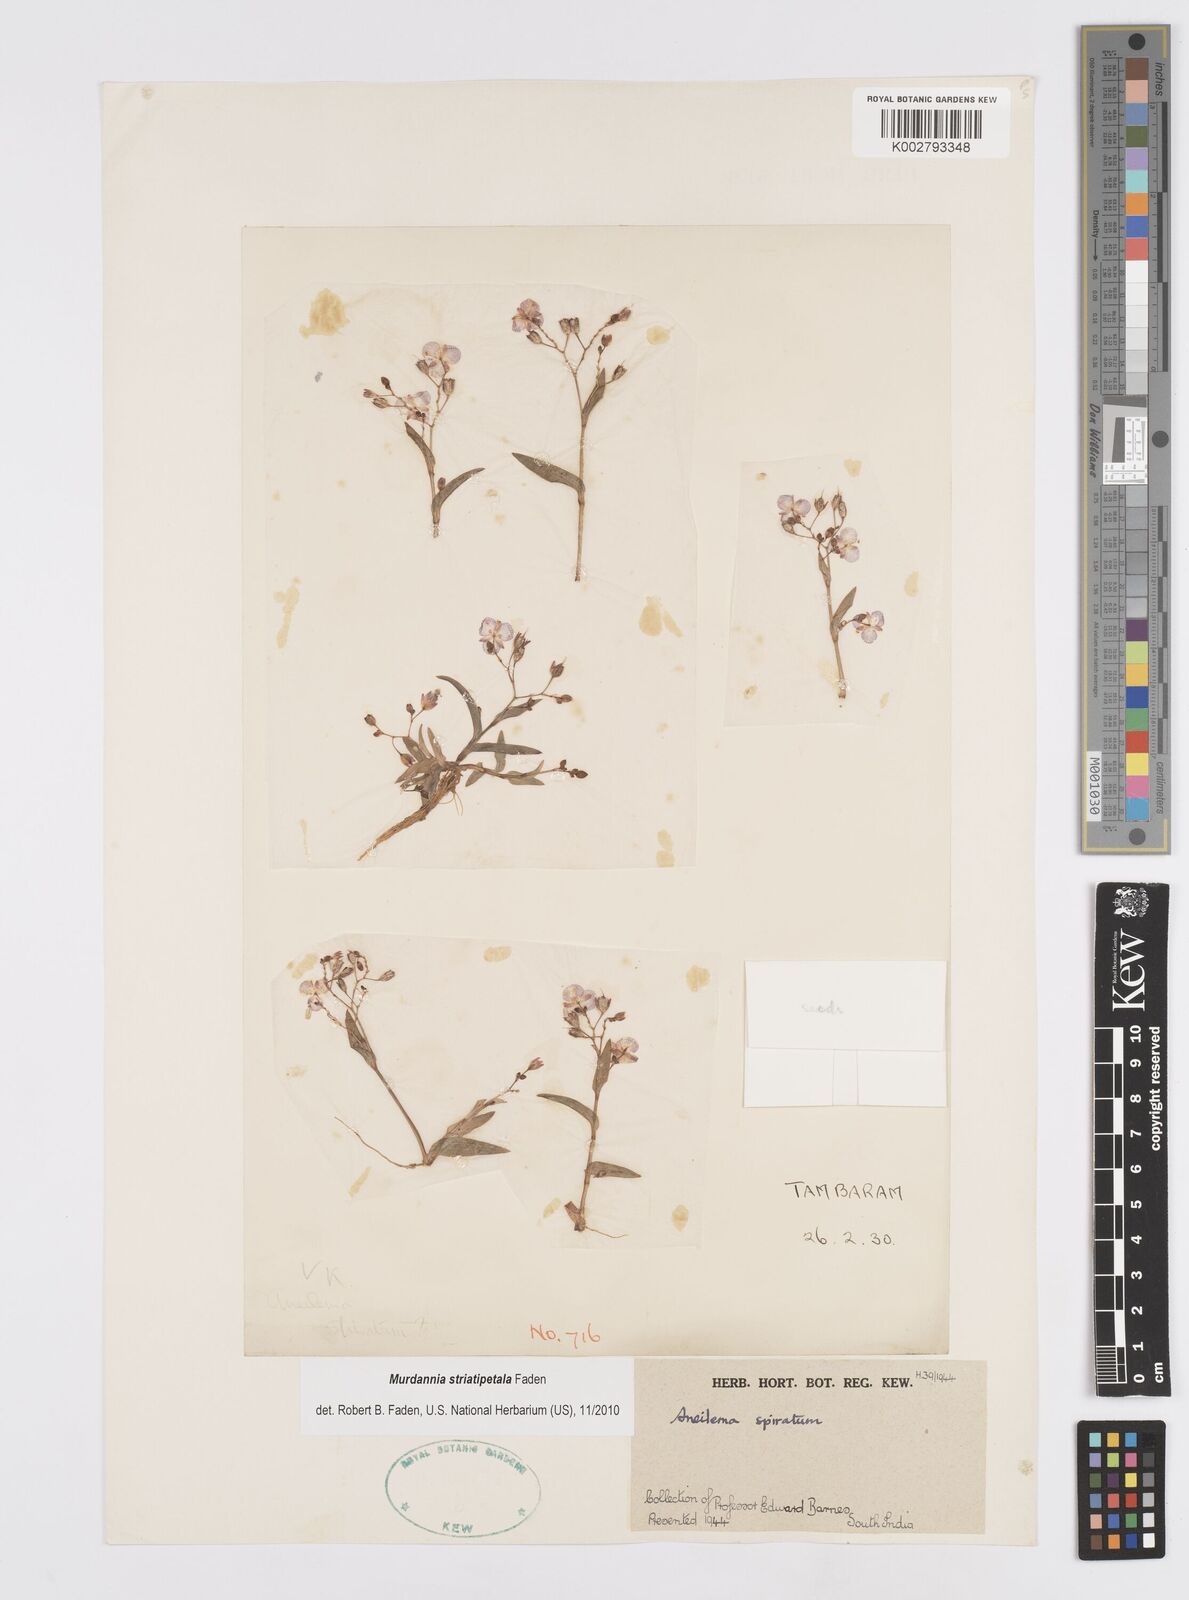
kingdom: Plantae
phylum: Tracheophyta
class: Liliopsida
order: Commelinales
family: Commelinaceae
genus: Murdannia
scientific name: Murdannia striatipetala
